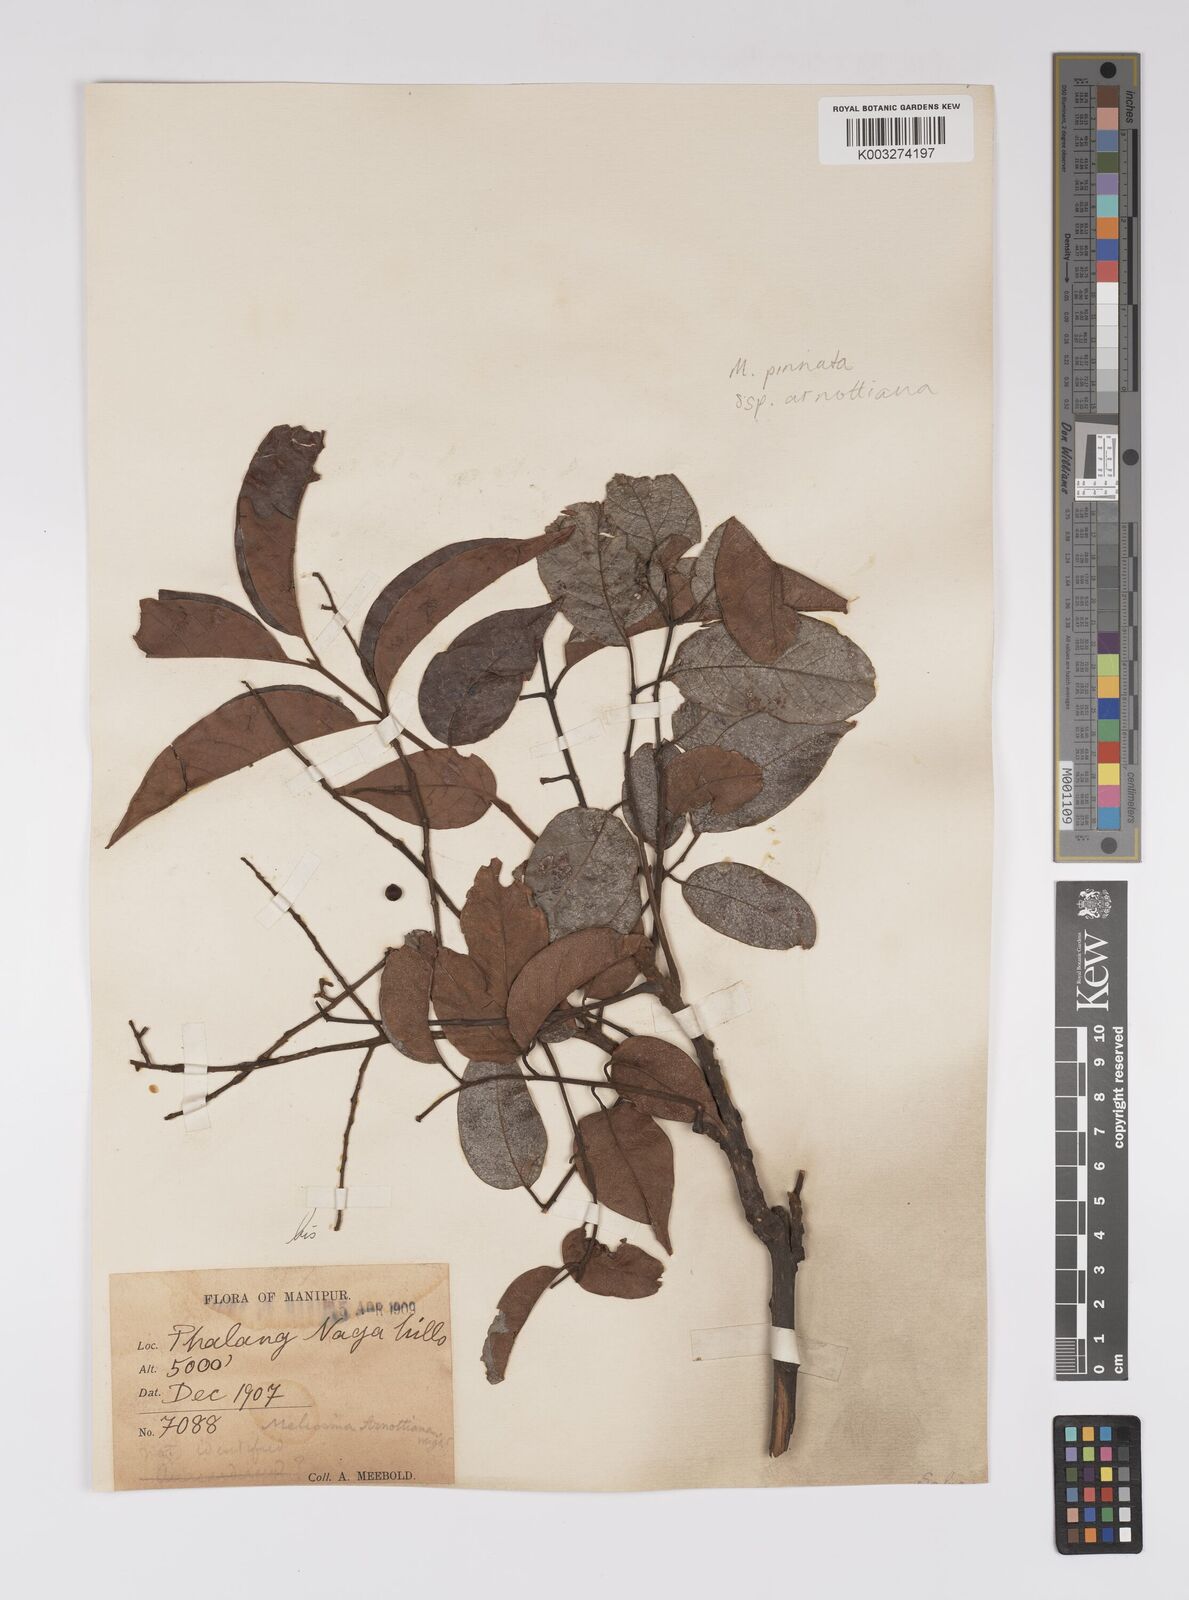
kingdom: Plantae
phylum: Tracheophyta
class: Magnoliopsida
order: Proteales
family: Sabiaceae
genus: Meliosma
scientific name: Meliosma rhoifolia
